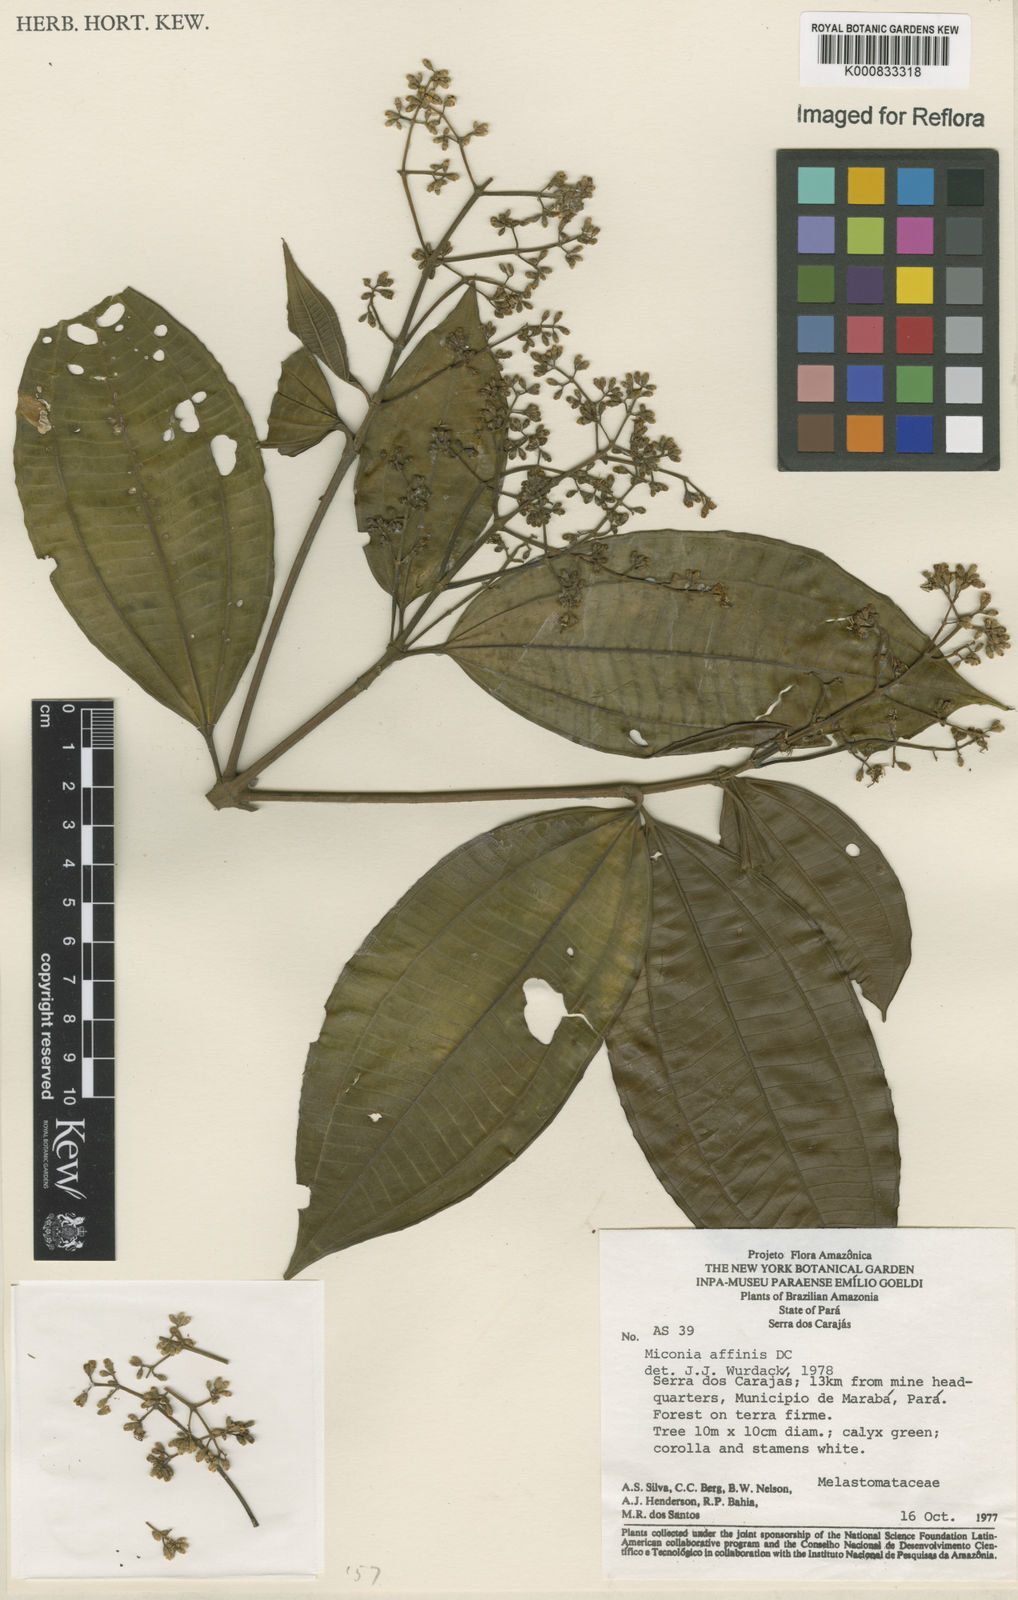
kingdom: Plantae
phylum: Tracheophyta
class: Magnoliopsida
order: Myrtales
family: Melastomataceae
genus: Miconia
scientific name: Miconia affinis
